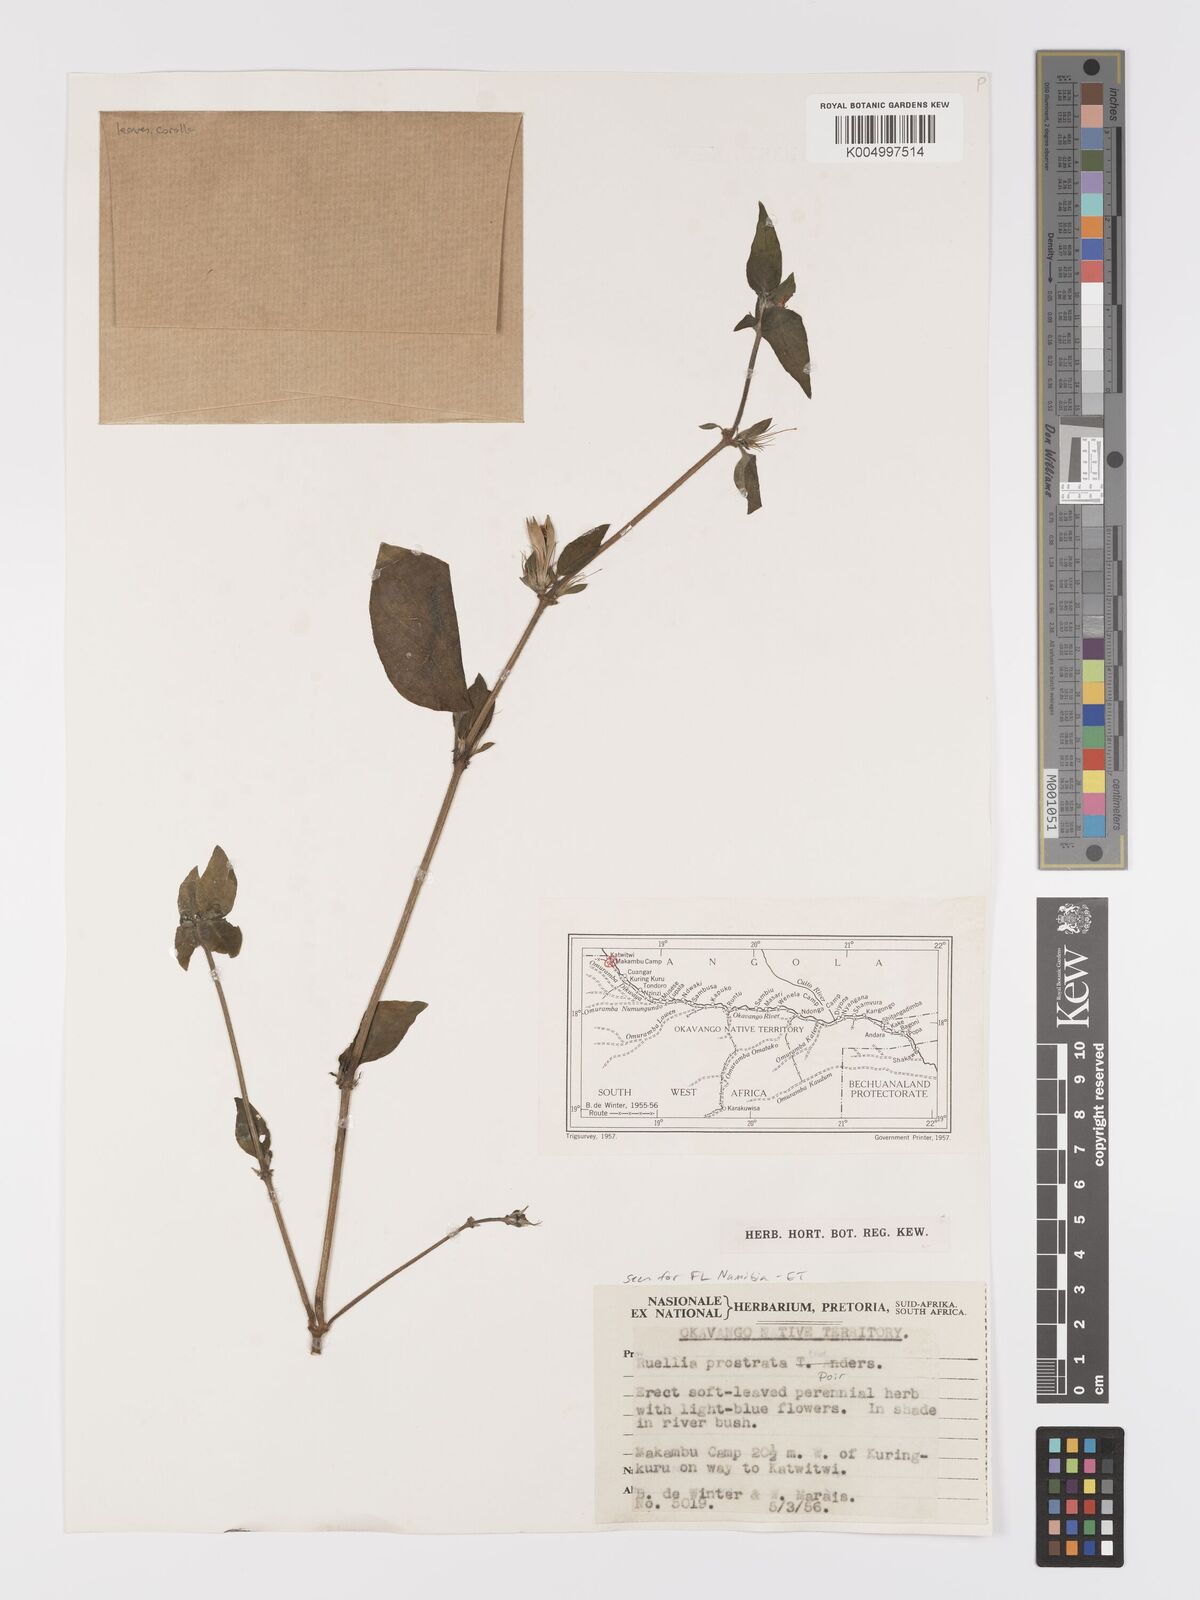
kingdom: Plantae
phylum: Tracheophyta
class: Magnoliopsida
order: Lamiales
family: Acanthaceae
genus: Ruellia
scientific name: Ruellia
